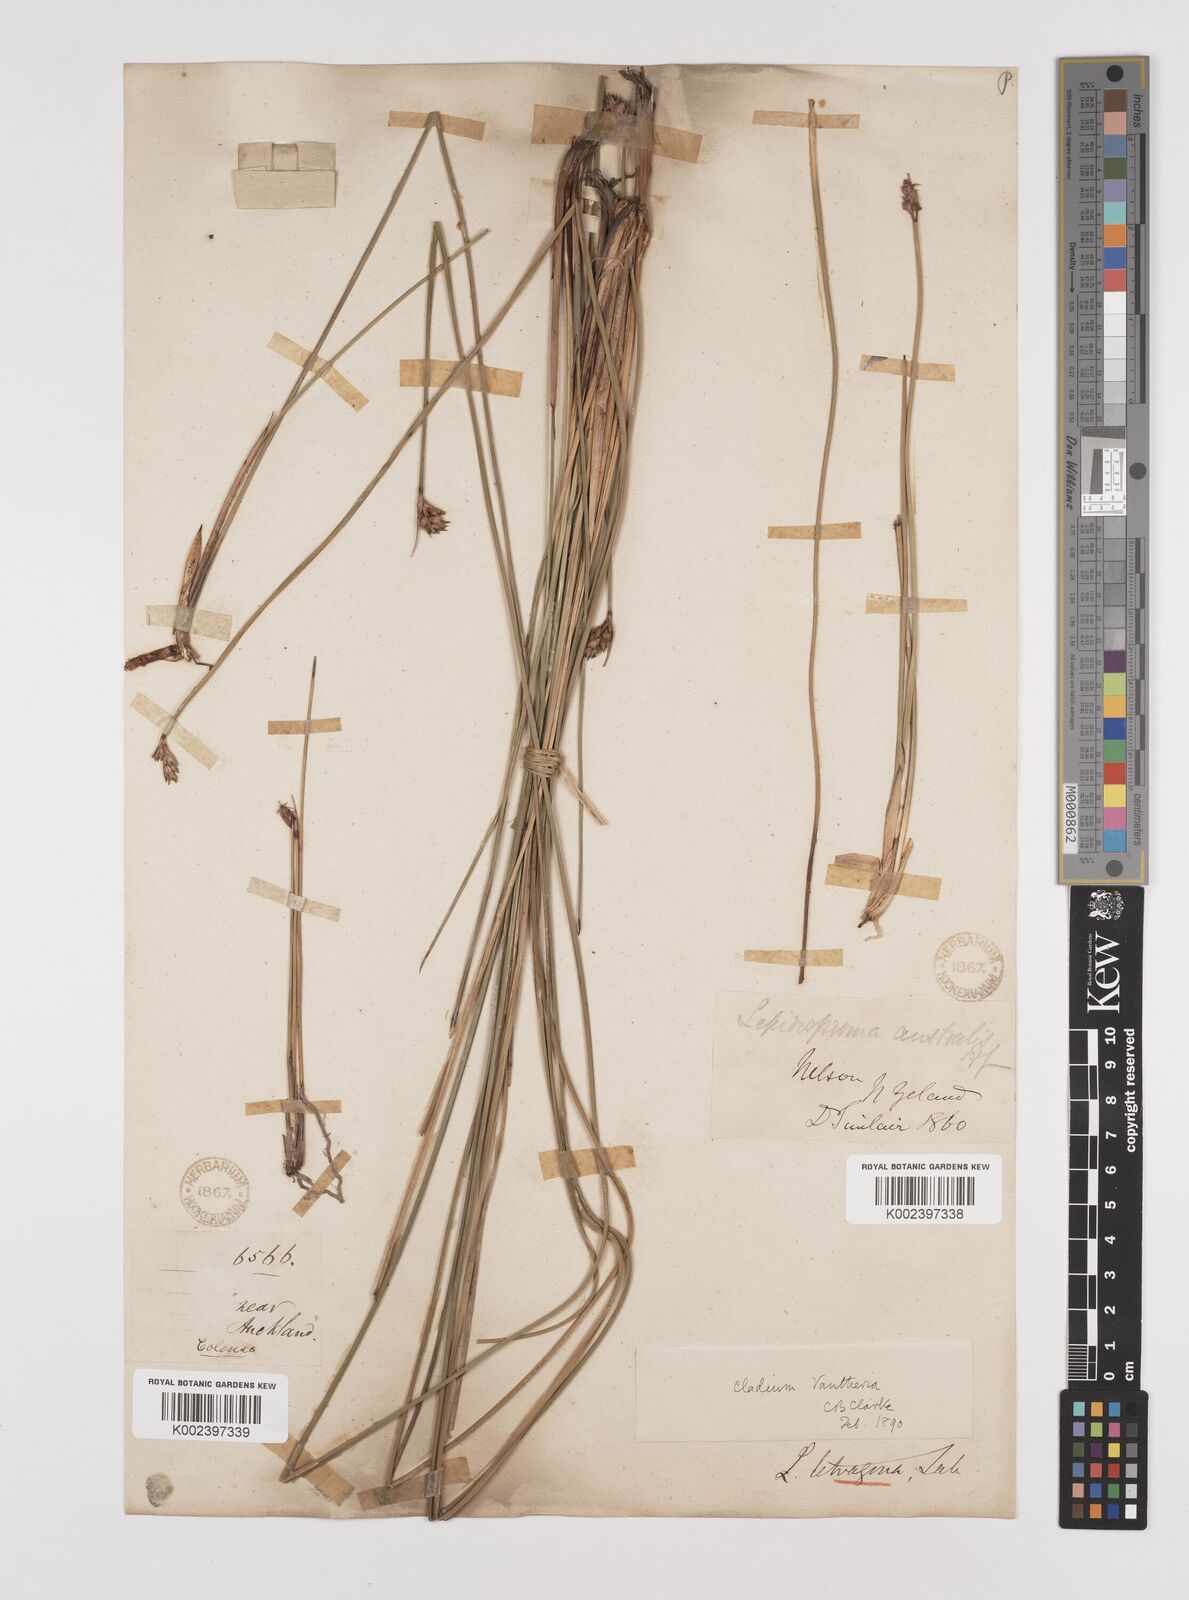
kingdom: Plantae
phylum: Tracheophyta
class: Liliopsida
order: Poales
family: Cyperaceae
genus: Lepidosperma
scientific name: Lepidosperma australe
